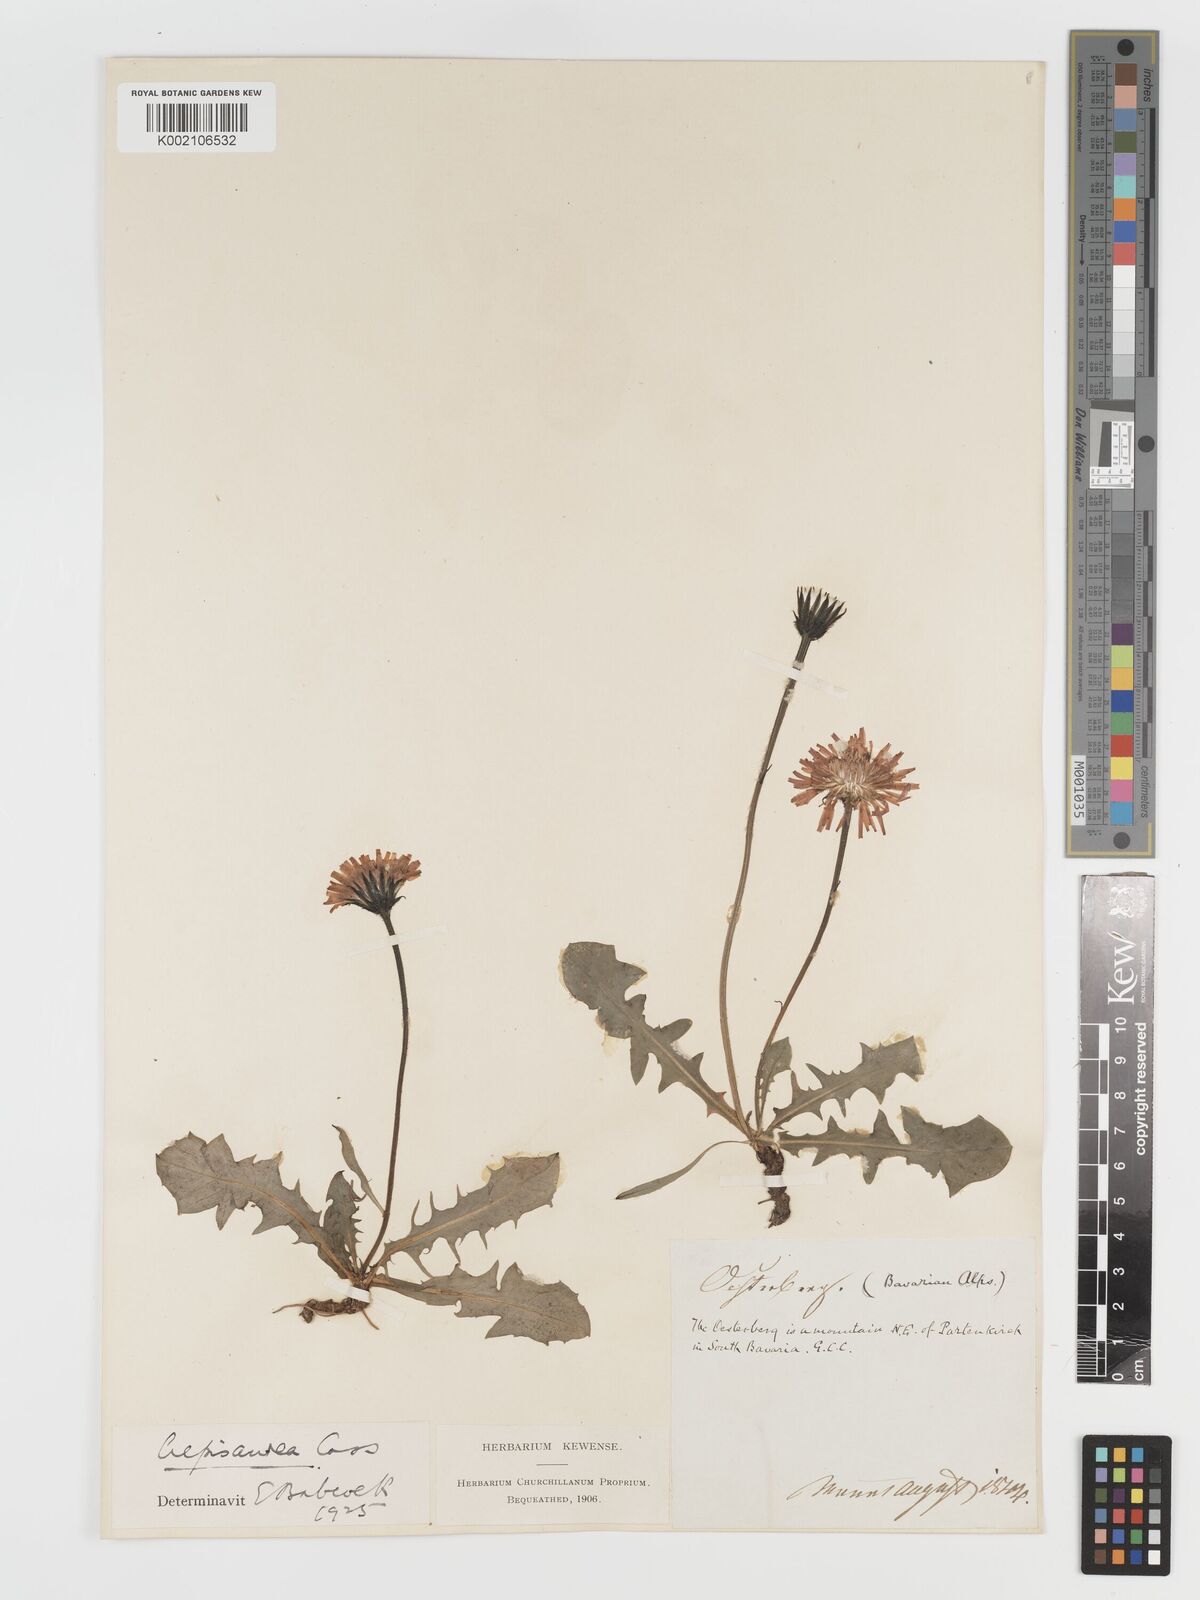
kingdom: Plantae
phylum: Tracheophyta
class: Magnoliopsida
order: Asterales
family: Asteraceae
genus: Crepis
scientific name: Crepis aurea
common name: Golden hawk's-beard
